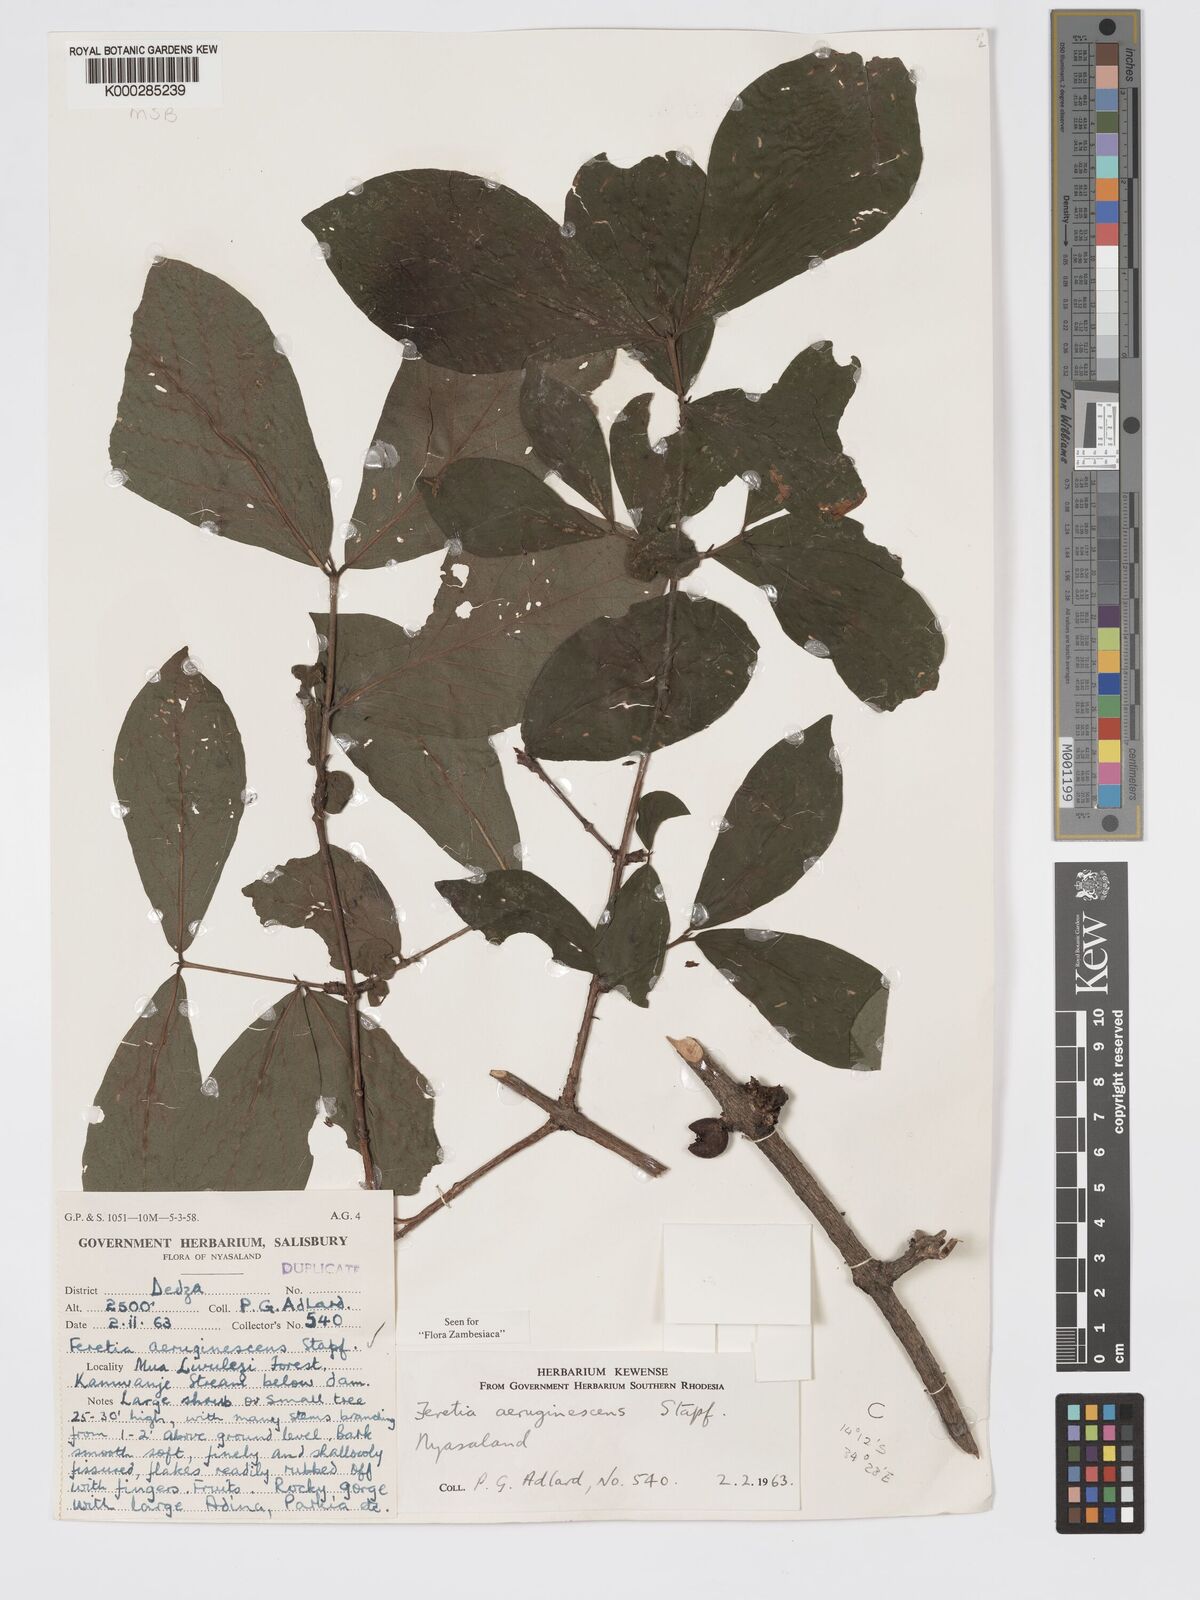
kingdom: Plantae
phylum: Tracheophyta
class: Magnoliopsida
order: Gentianales
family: Rubiaceae
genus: Feretia
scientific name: Feretia aeruginescens
